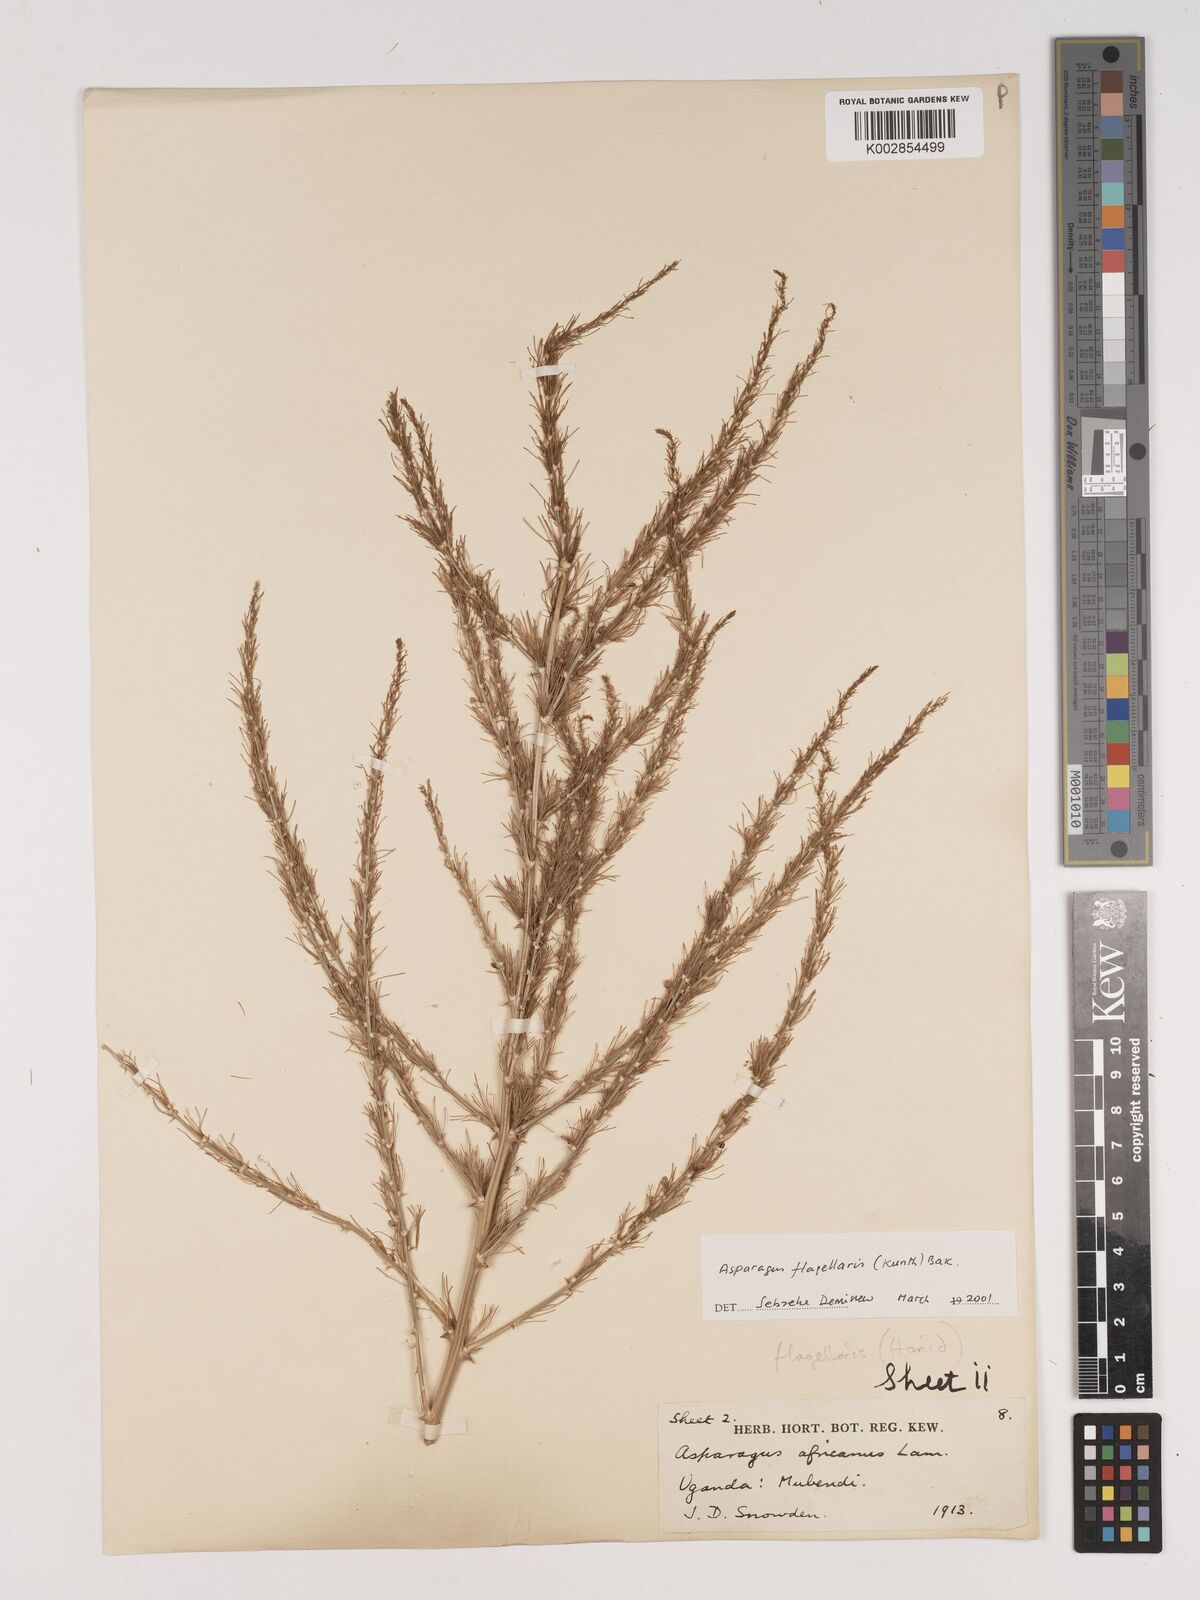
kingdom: Plantae
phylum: Tracheophyta
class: Liliopsida
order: Asparagales
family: Asparagaceae
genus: Asparagus
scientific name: Asparagus flagellaris
